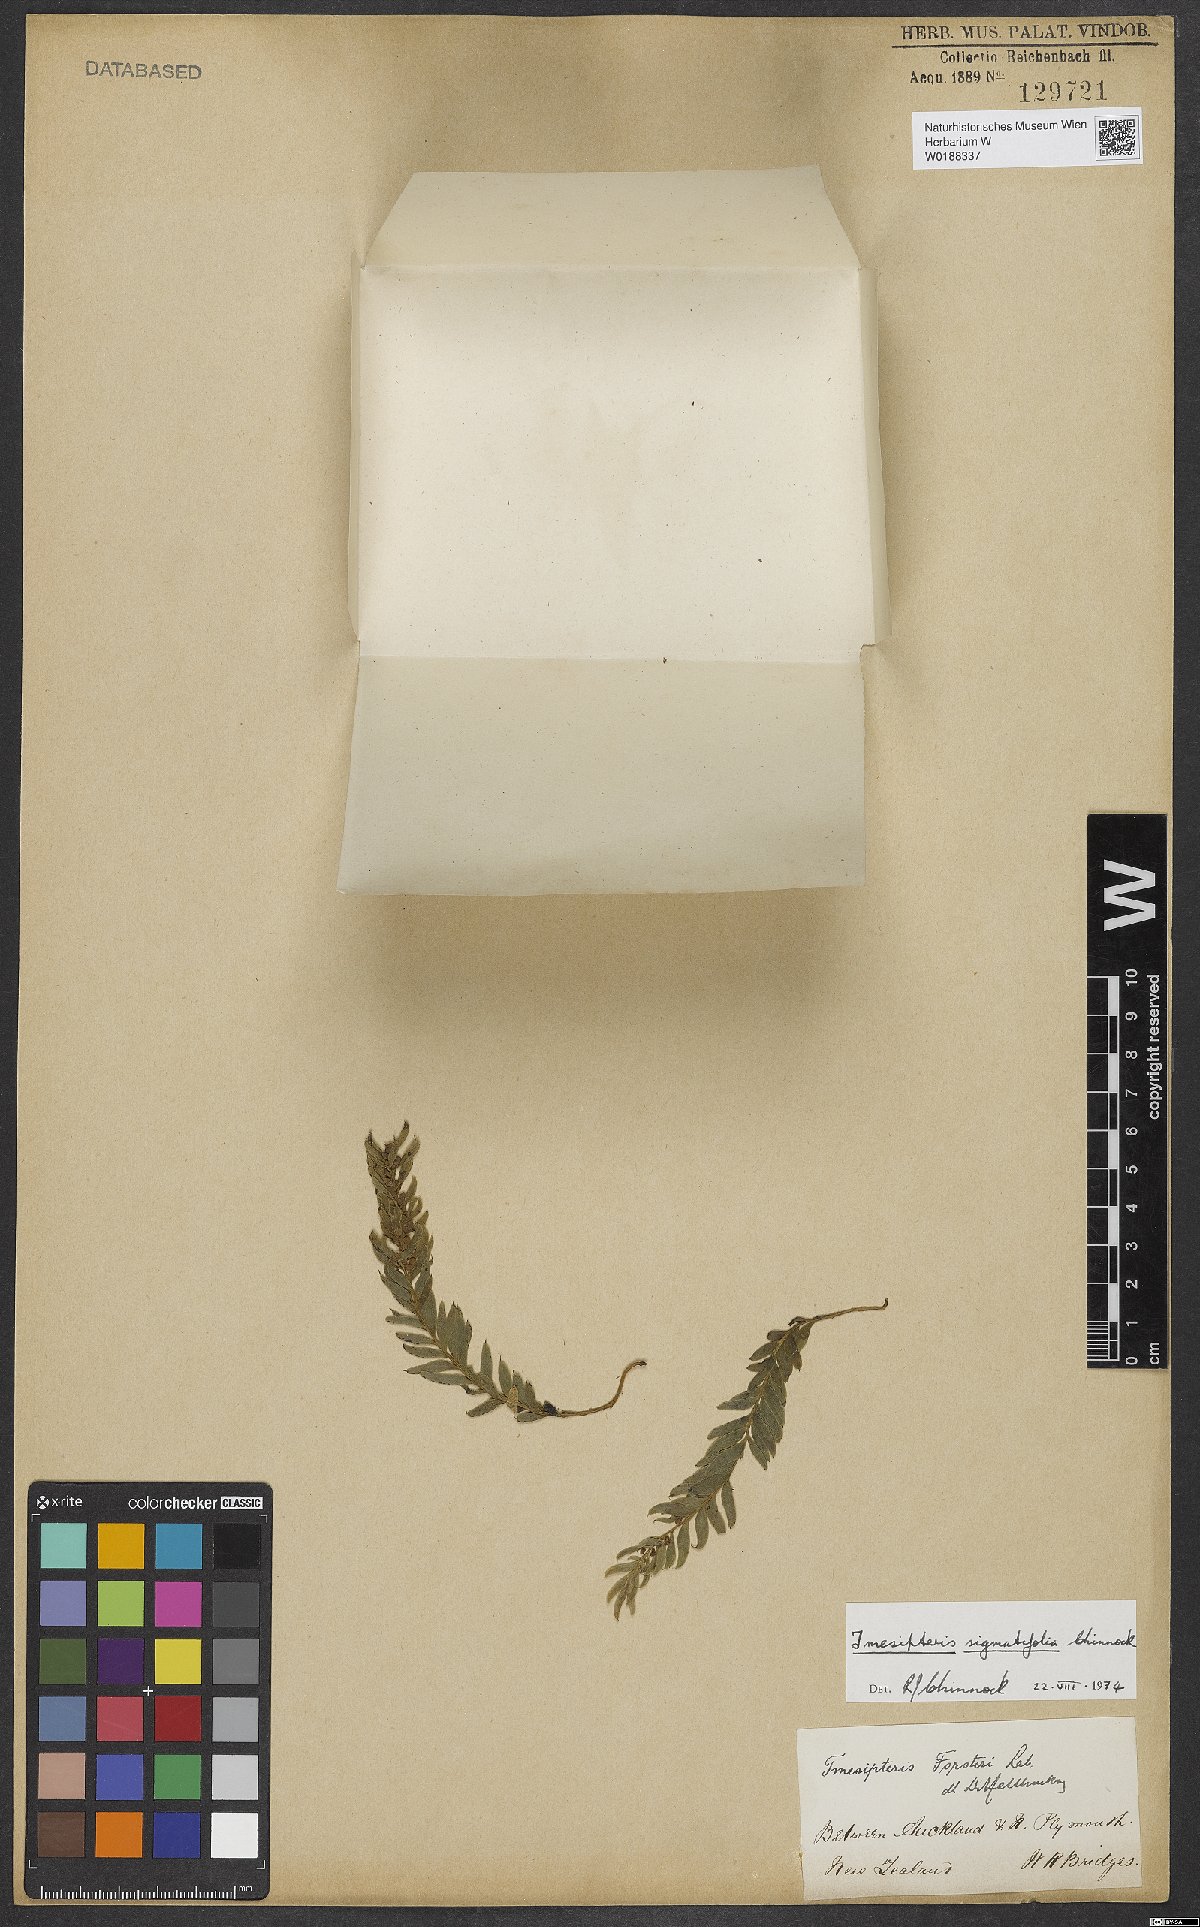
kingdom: Plantae
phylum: Tracheophyta
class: Polypodiopsida
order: Psilotales
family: Psilotaceae
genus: Tmesipteris
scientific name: Tmesipteris sigmatifolia
